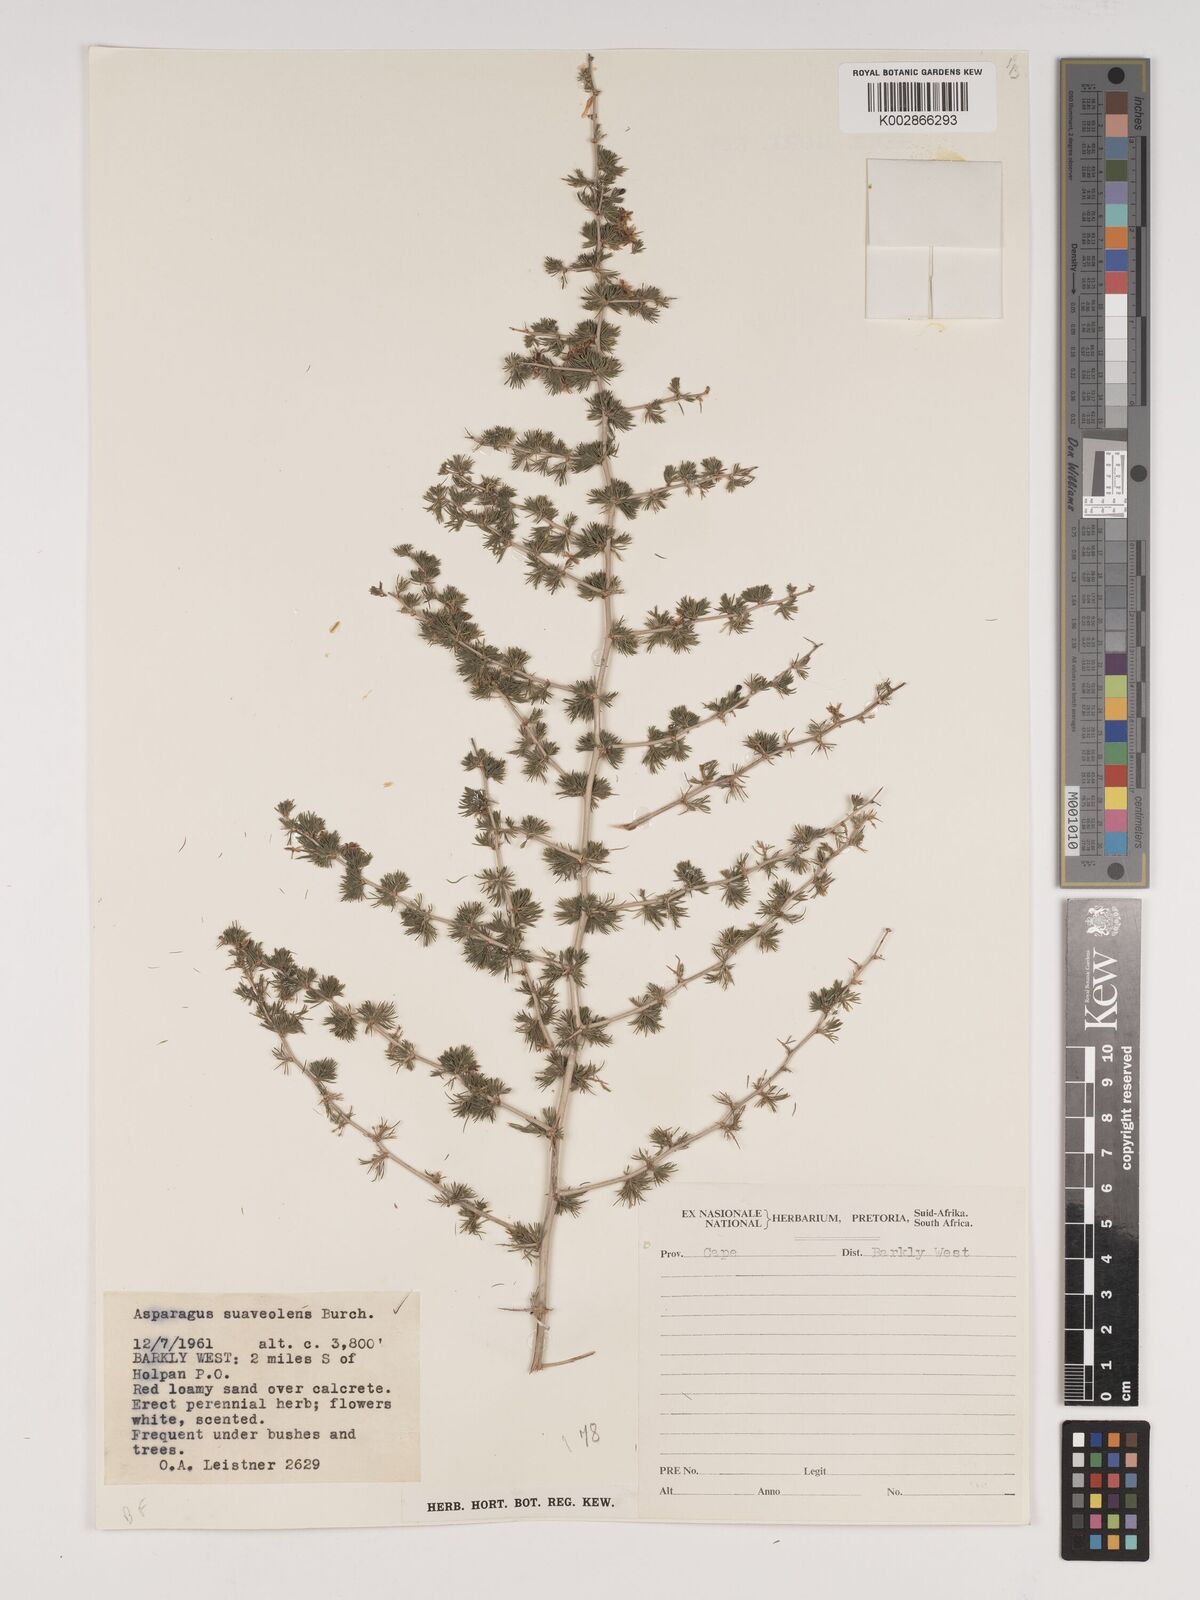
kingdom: Plantae
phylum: Tracheophyta
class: Liliopsida
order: Asparagales
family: Asparagaceae
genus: Asparagus
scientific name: Asparagus suaveolens
